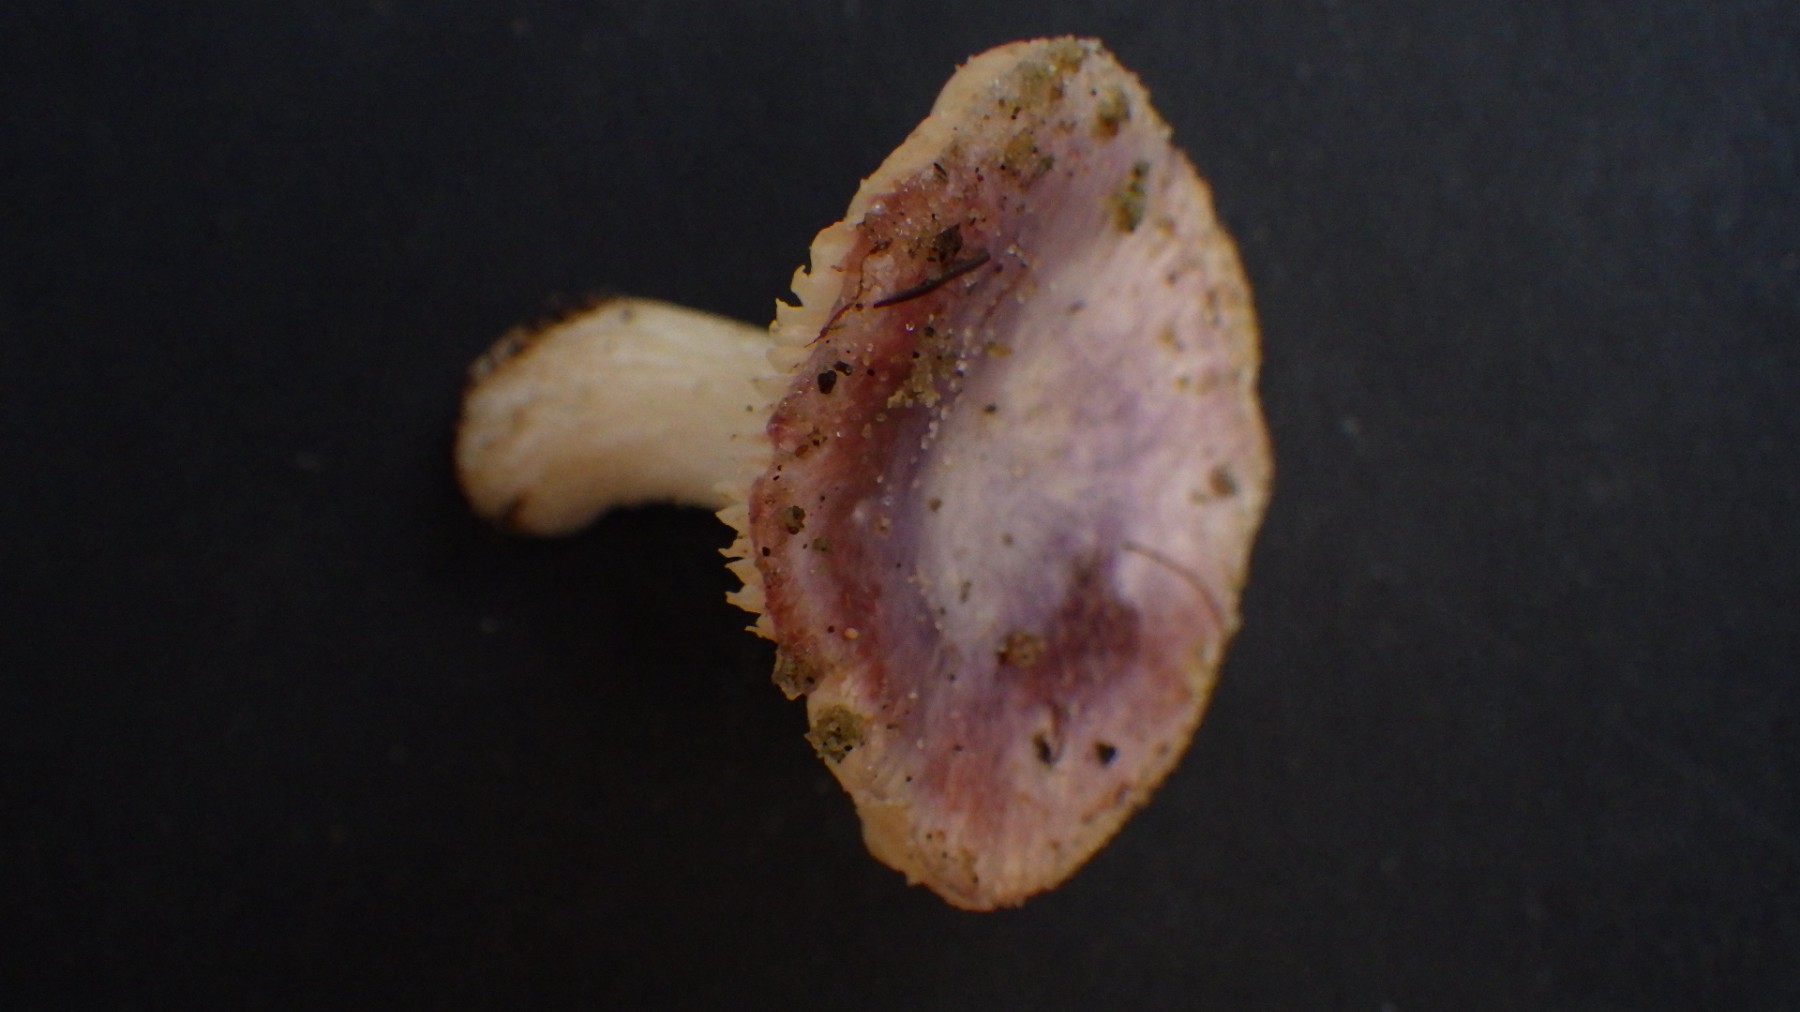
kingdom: Fungi
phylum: Basidiomycota
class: Agaricomycetes
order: Russulales
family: Russulaceae
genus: Russula
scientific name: Russula
